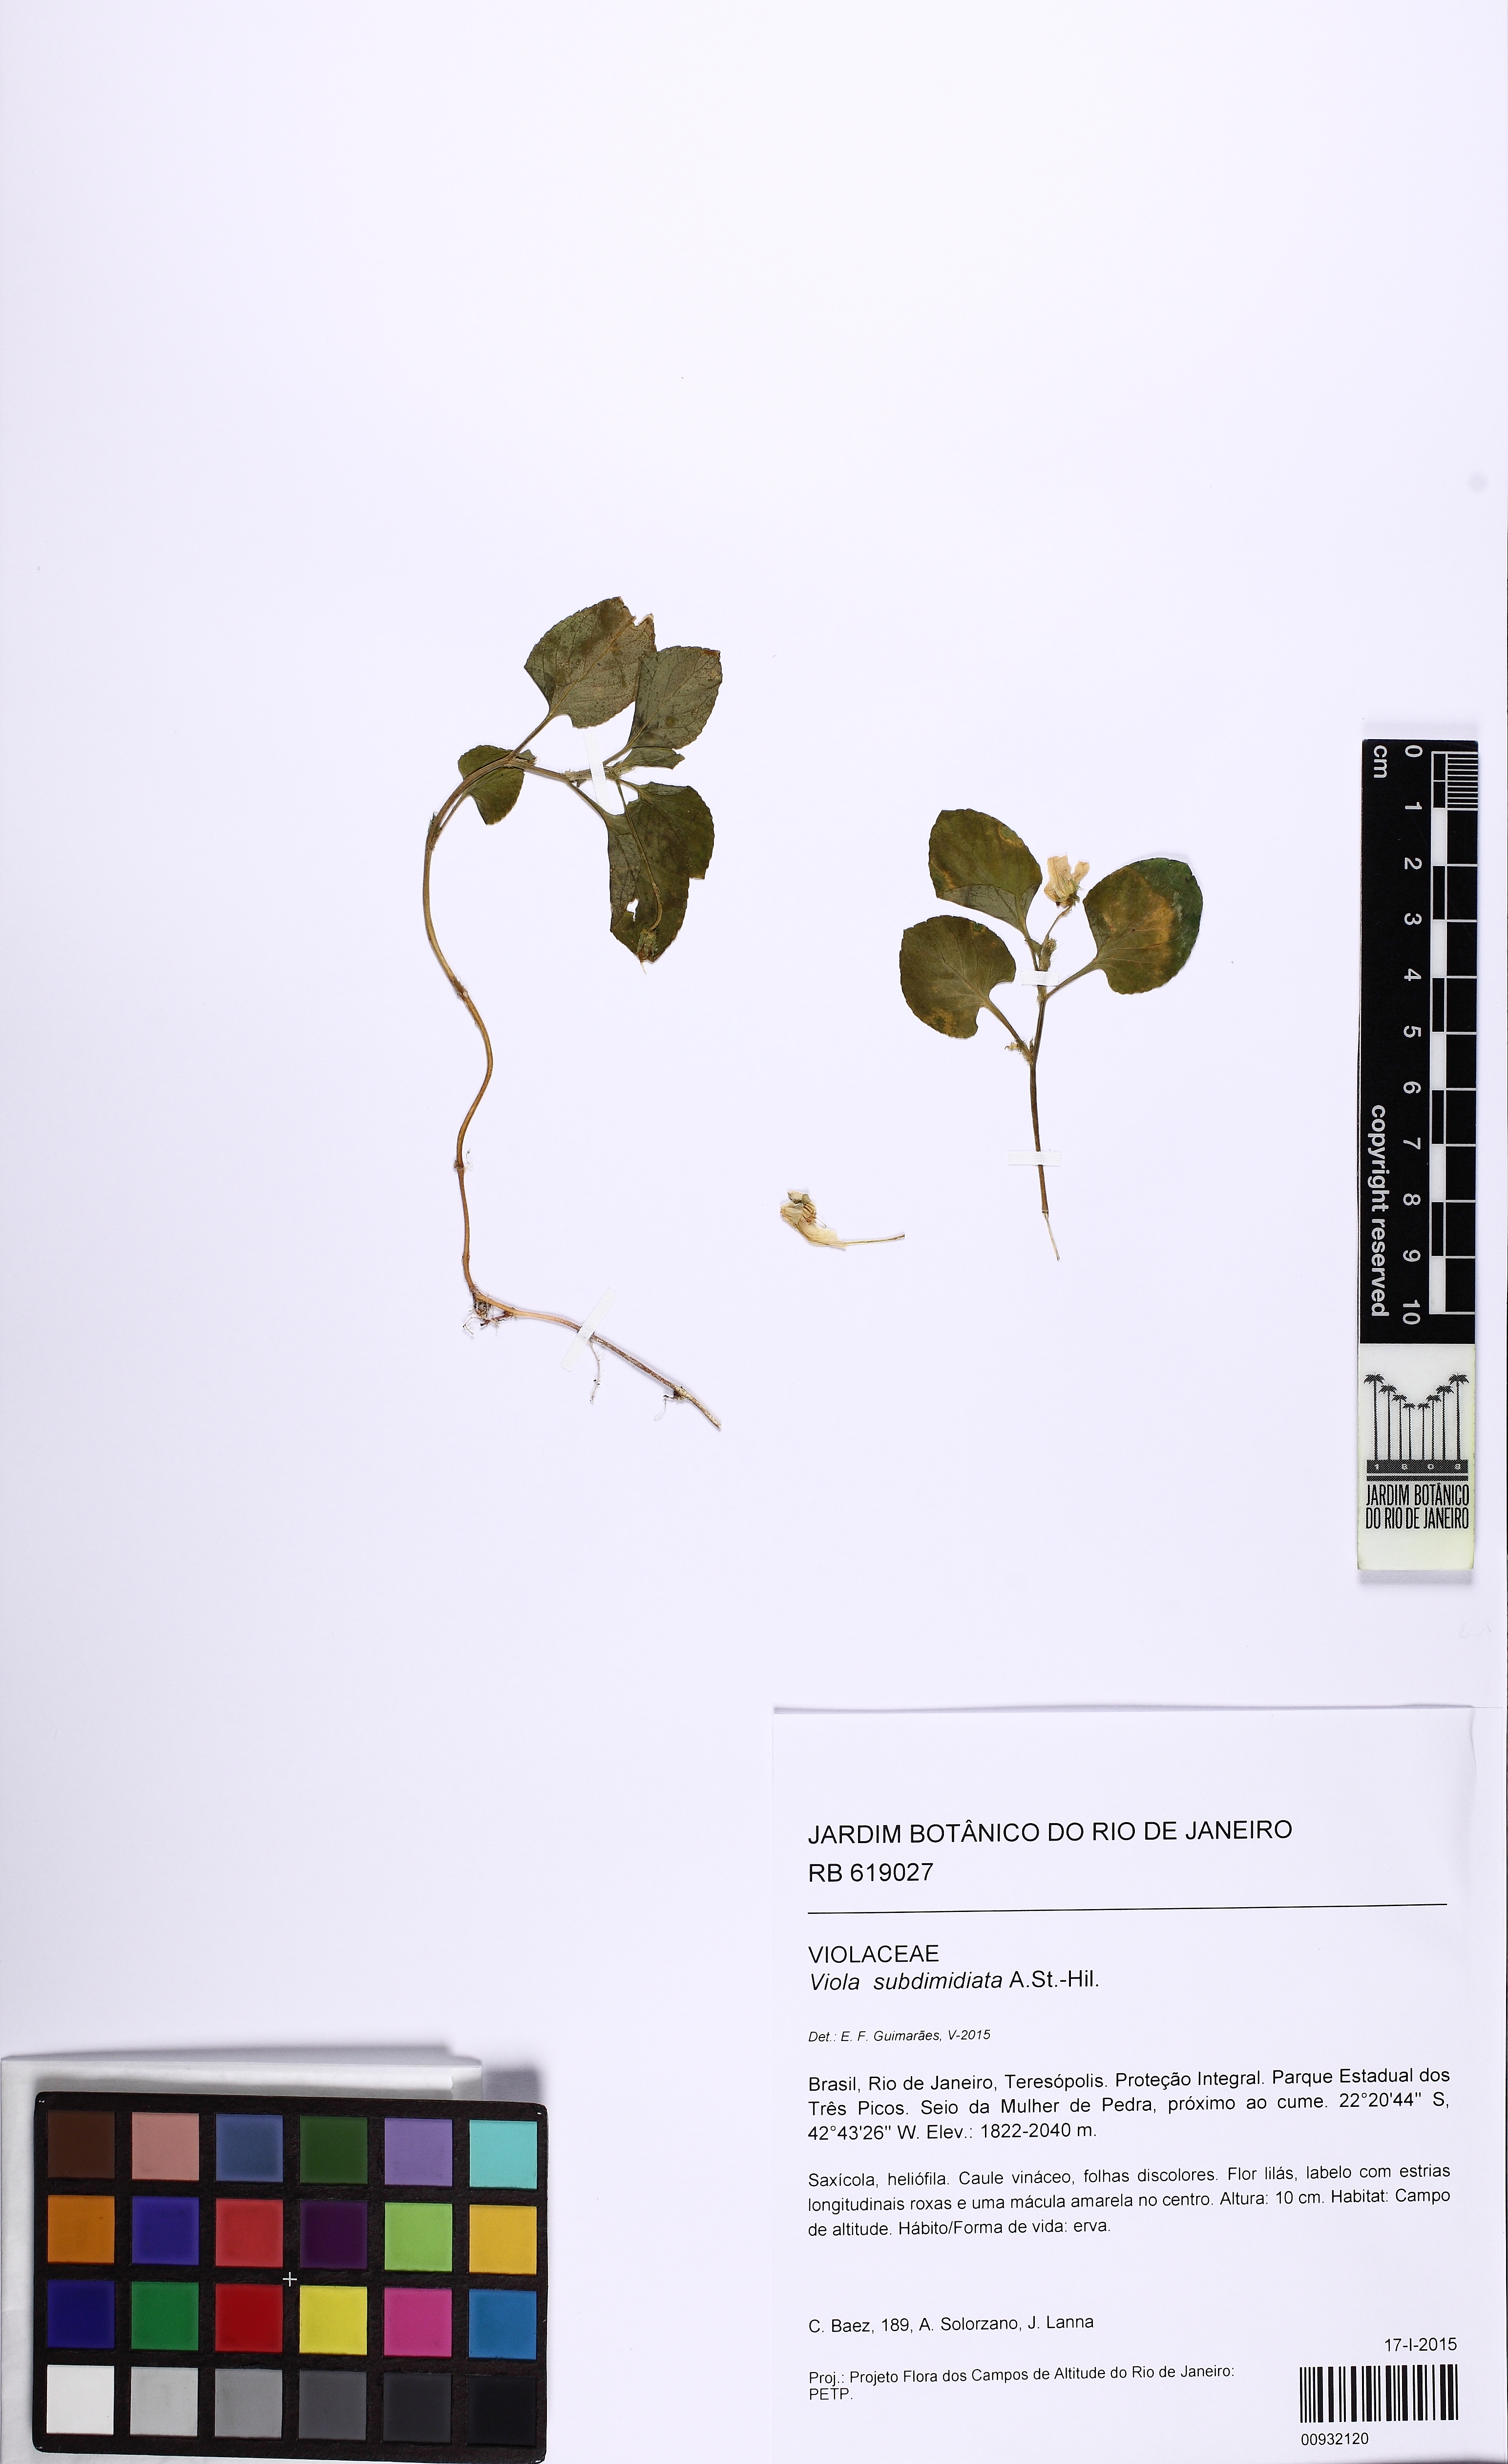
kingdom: Plantae
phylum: Tracheophyta
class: Magnoliopsida
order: Malpighiales
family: Violaceae
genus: Viola
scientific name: Viola subdimidiata
